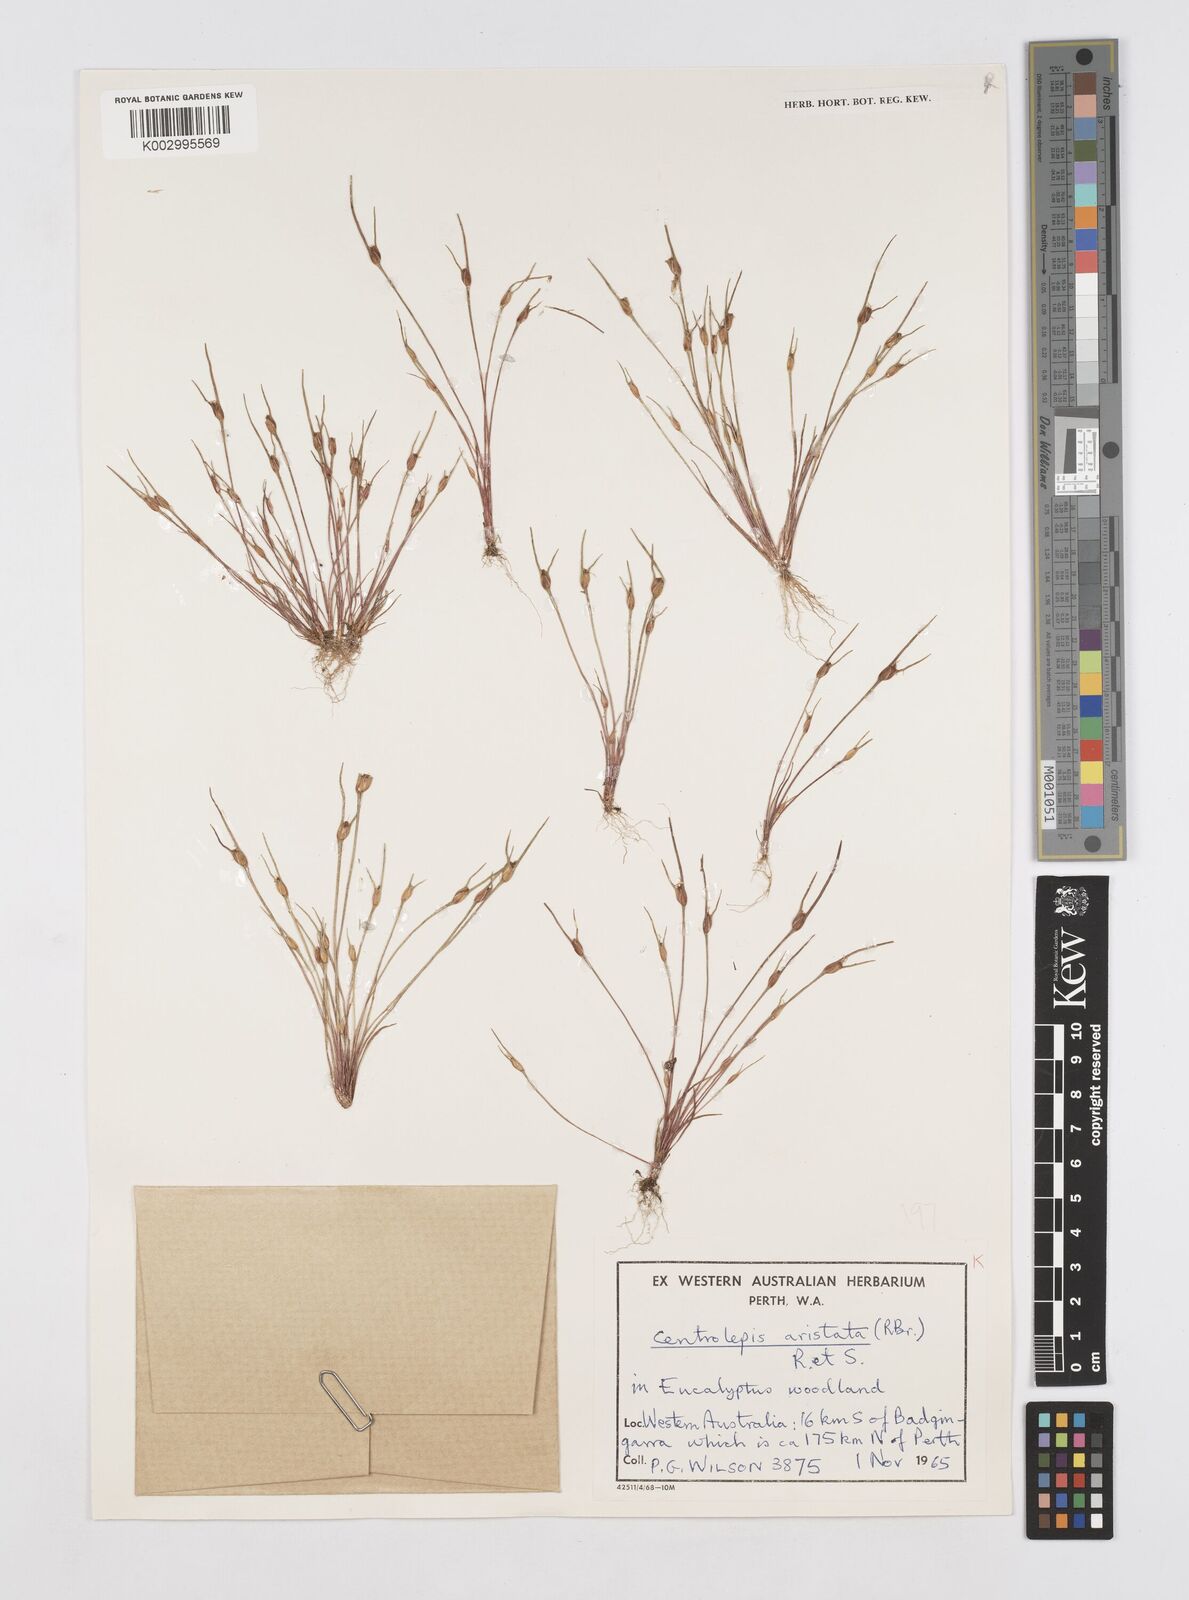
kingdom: Plantae
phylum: Tracheophyta
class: Liliopsida
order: Poales
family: Restionaceae
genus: Centrolepis
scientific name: Centrolepis aristata
